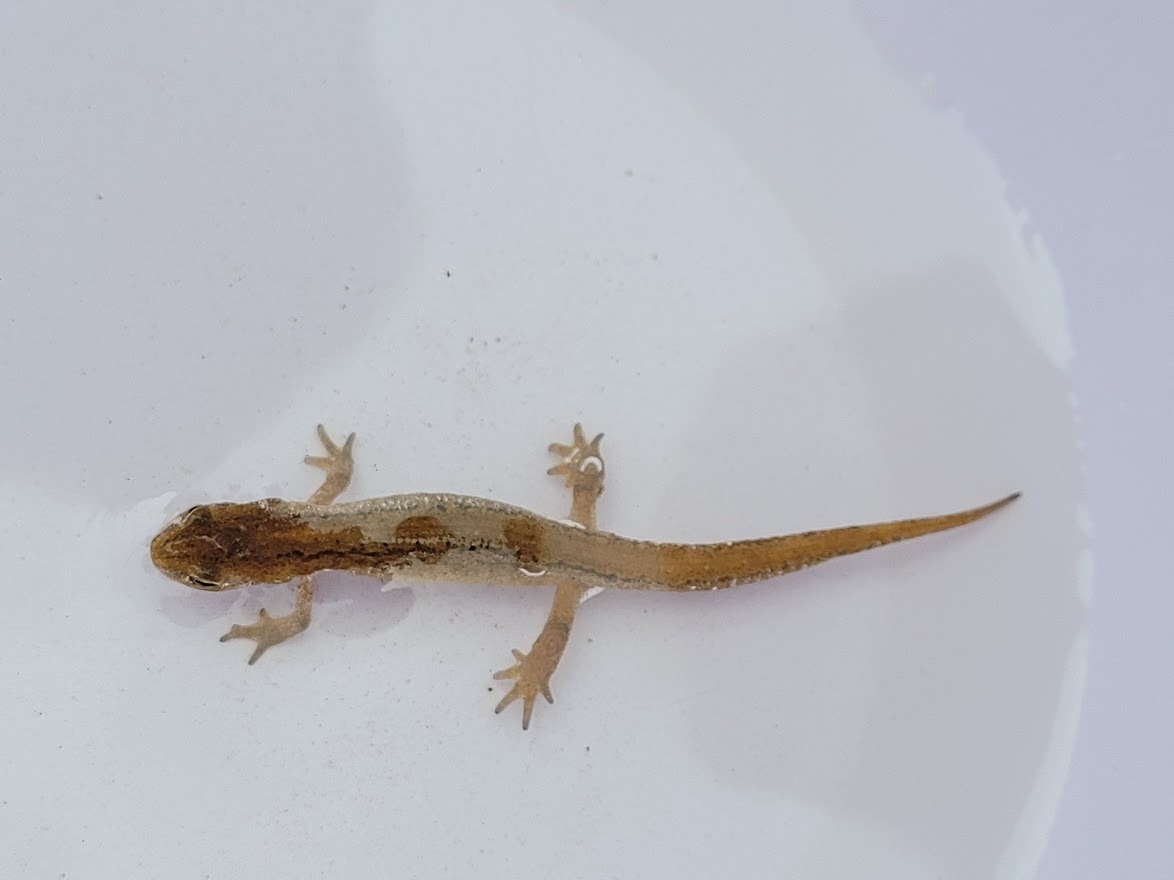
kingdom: Animalia
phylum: Chordata
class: Amphibia
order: Caudata
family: Salamandridae
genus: Lissotriton
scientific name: Lissotriton vulgaris
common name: Lille vandsalamander
